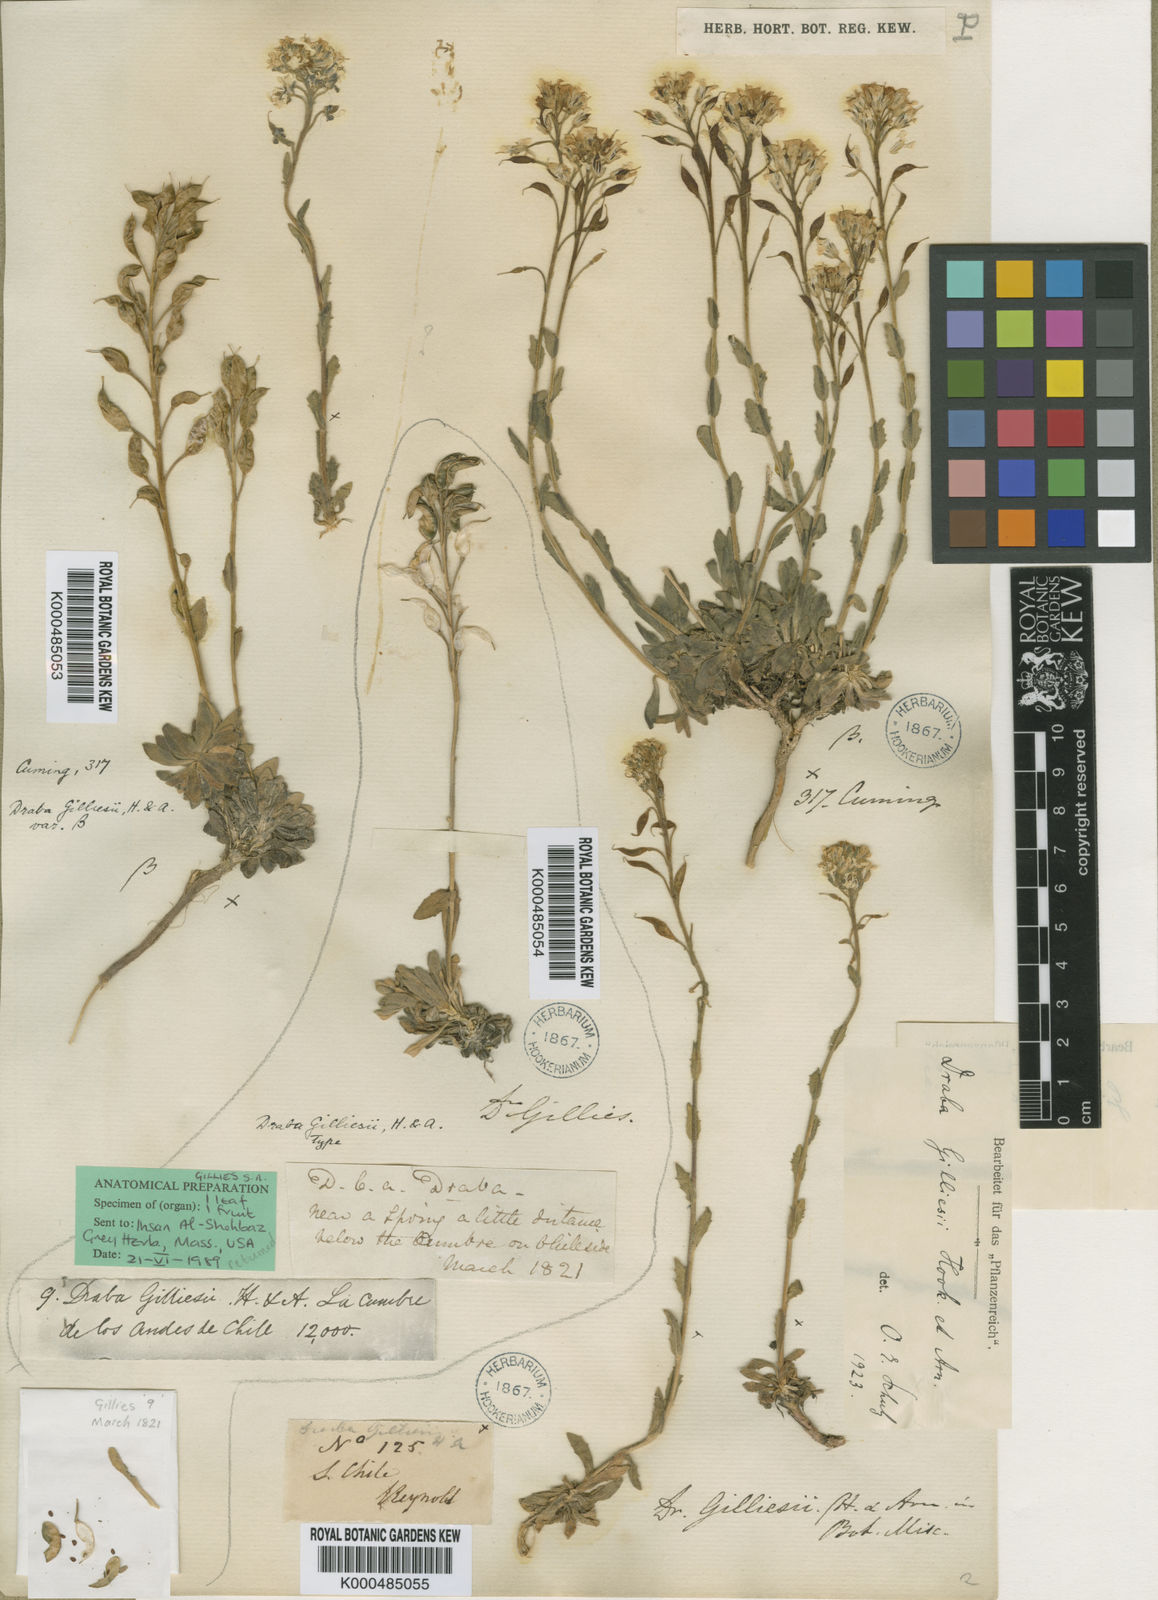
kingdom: Plantae
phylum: Tracheophyta
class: Magnoliopsida
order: Brassicales
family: Brassicaceae
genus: Draba
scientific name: Draba gilliesii
